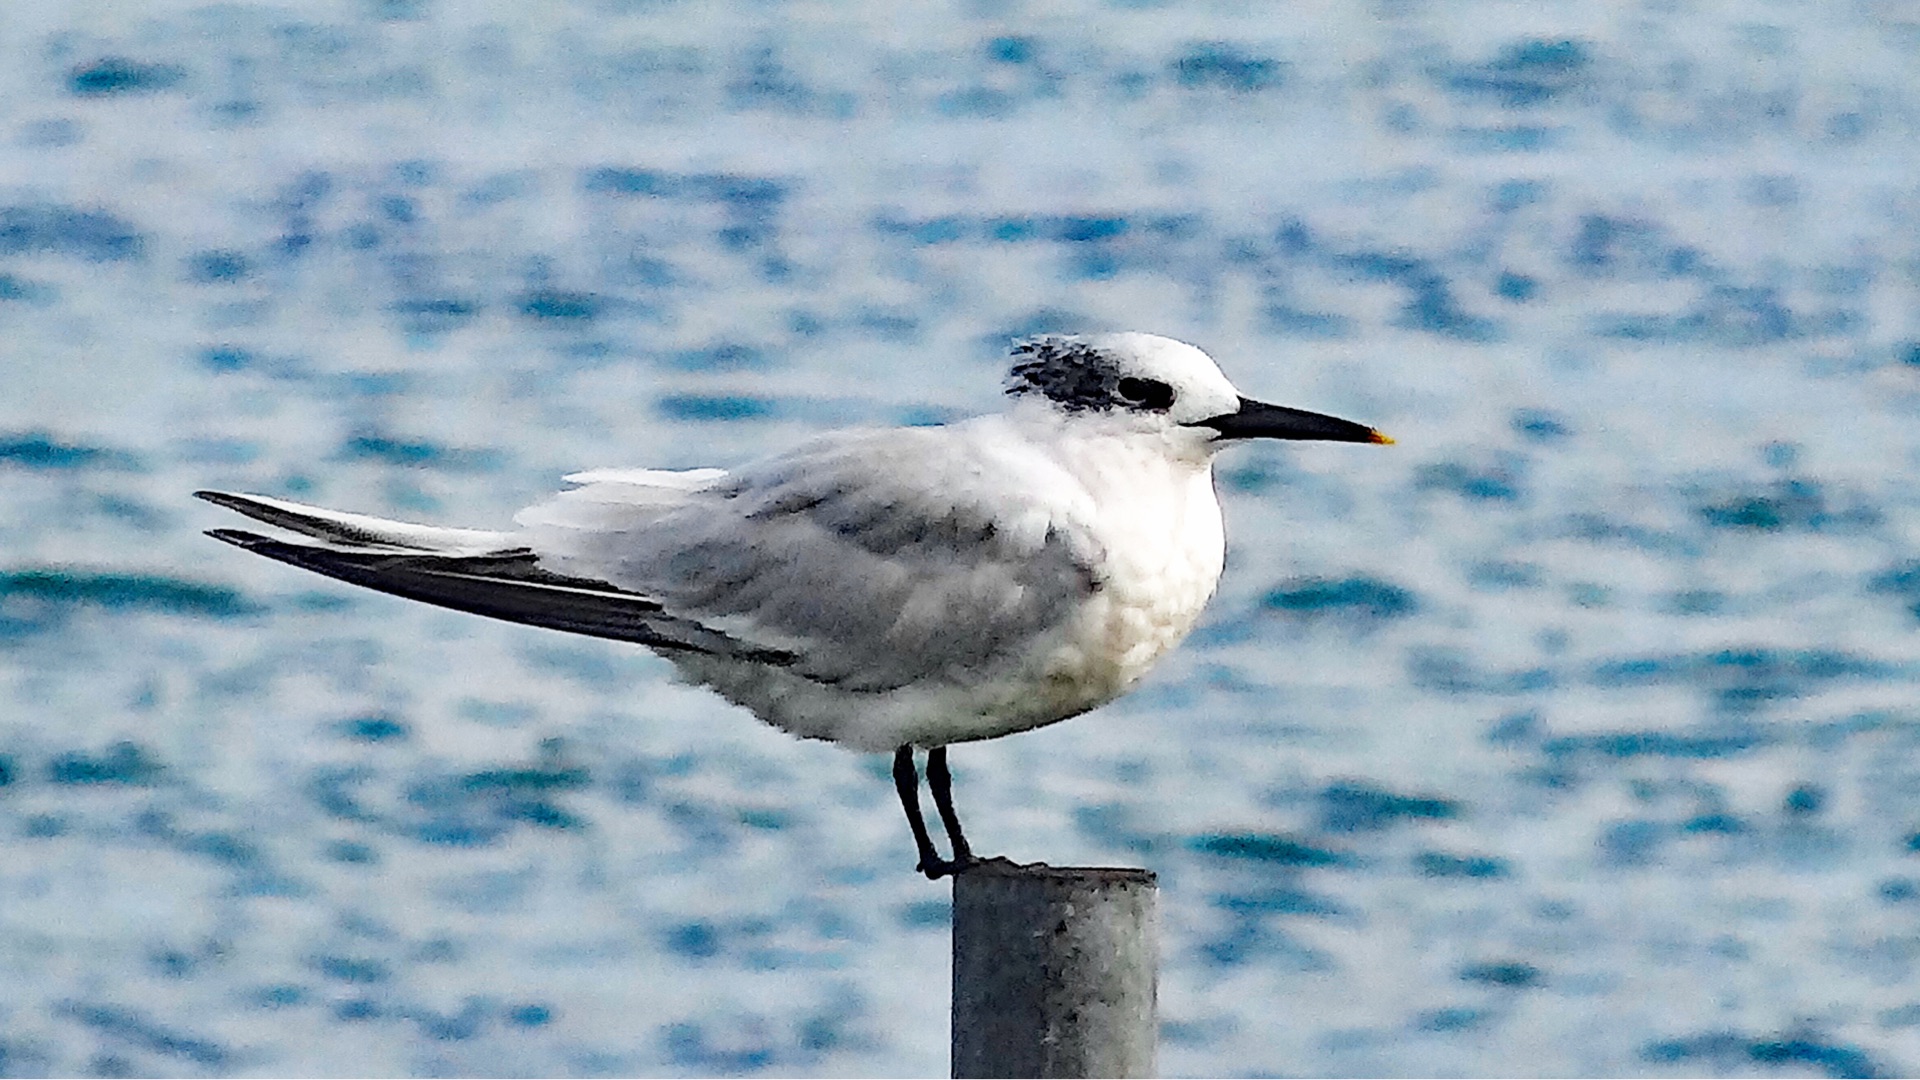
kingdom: Animalia
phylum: Chordata
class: Aves
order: Charadriiformes
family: Laridae
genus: Thalasseus
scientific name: Thalasseus sandvicensis
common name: Splitterne
